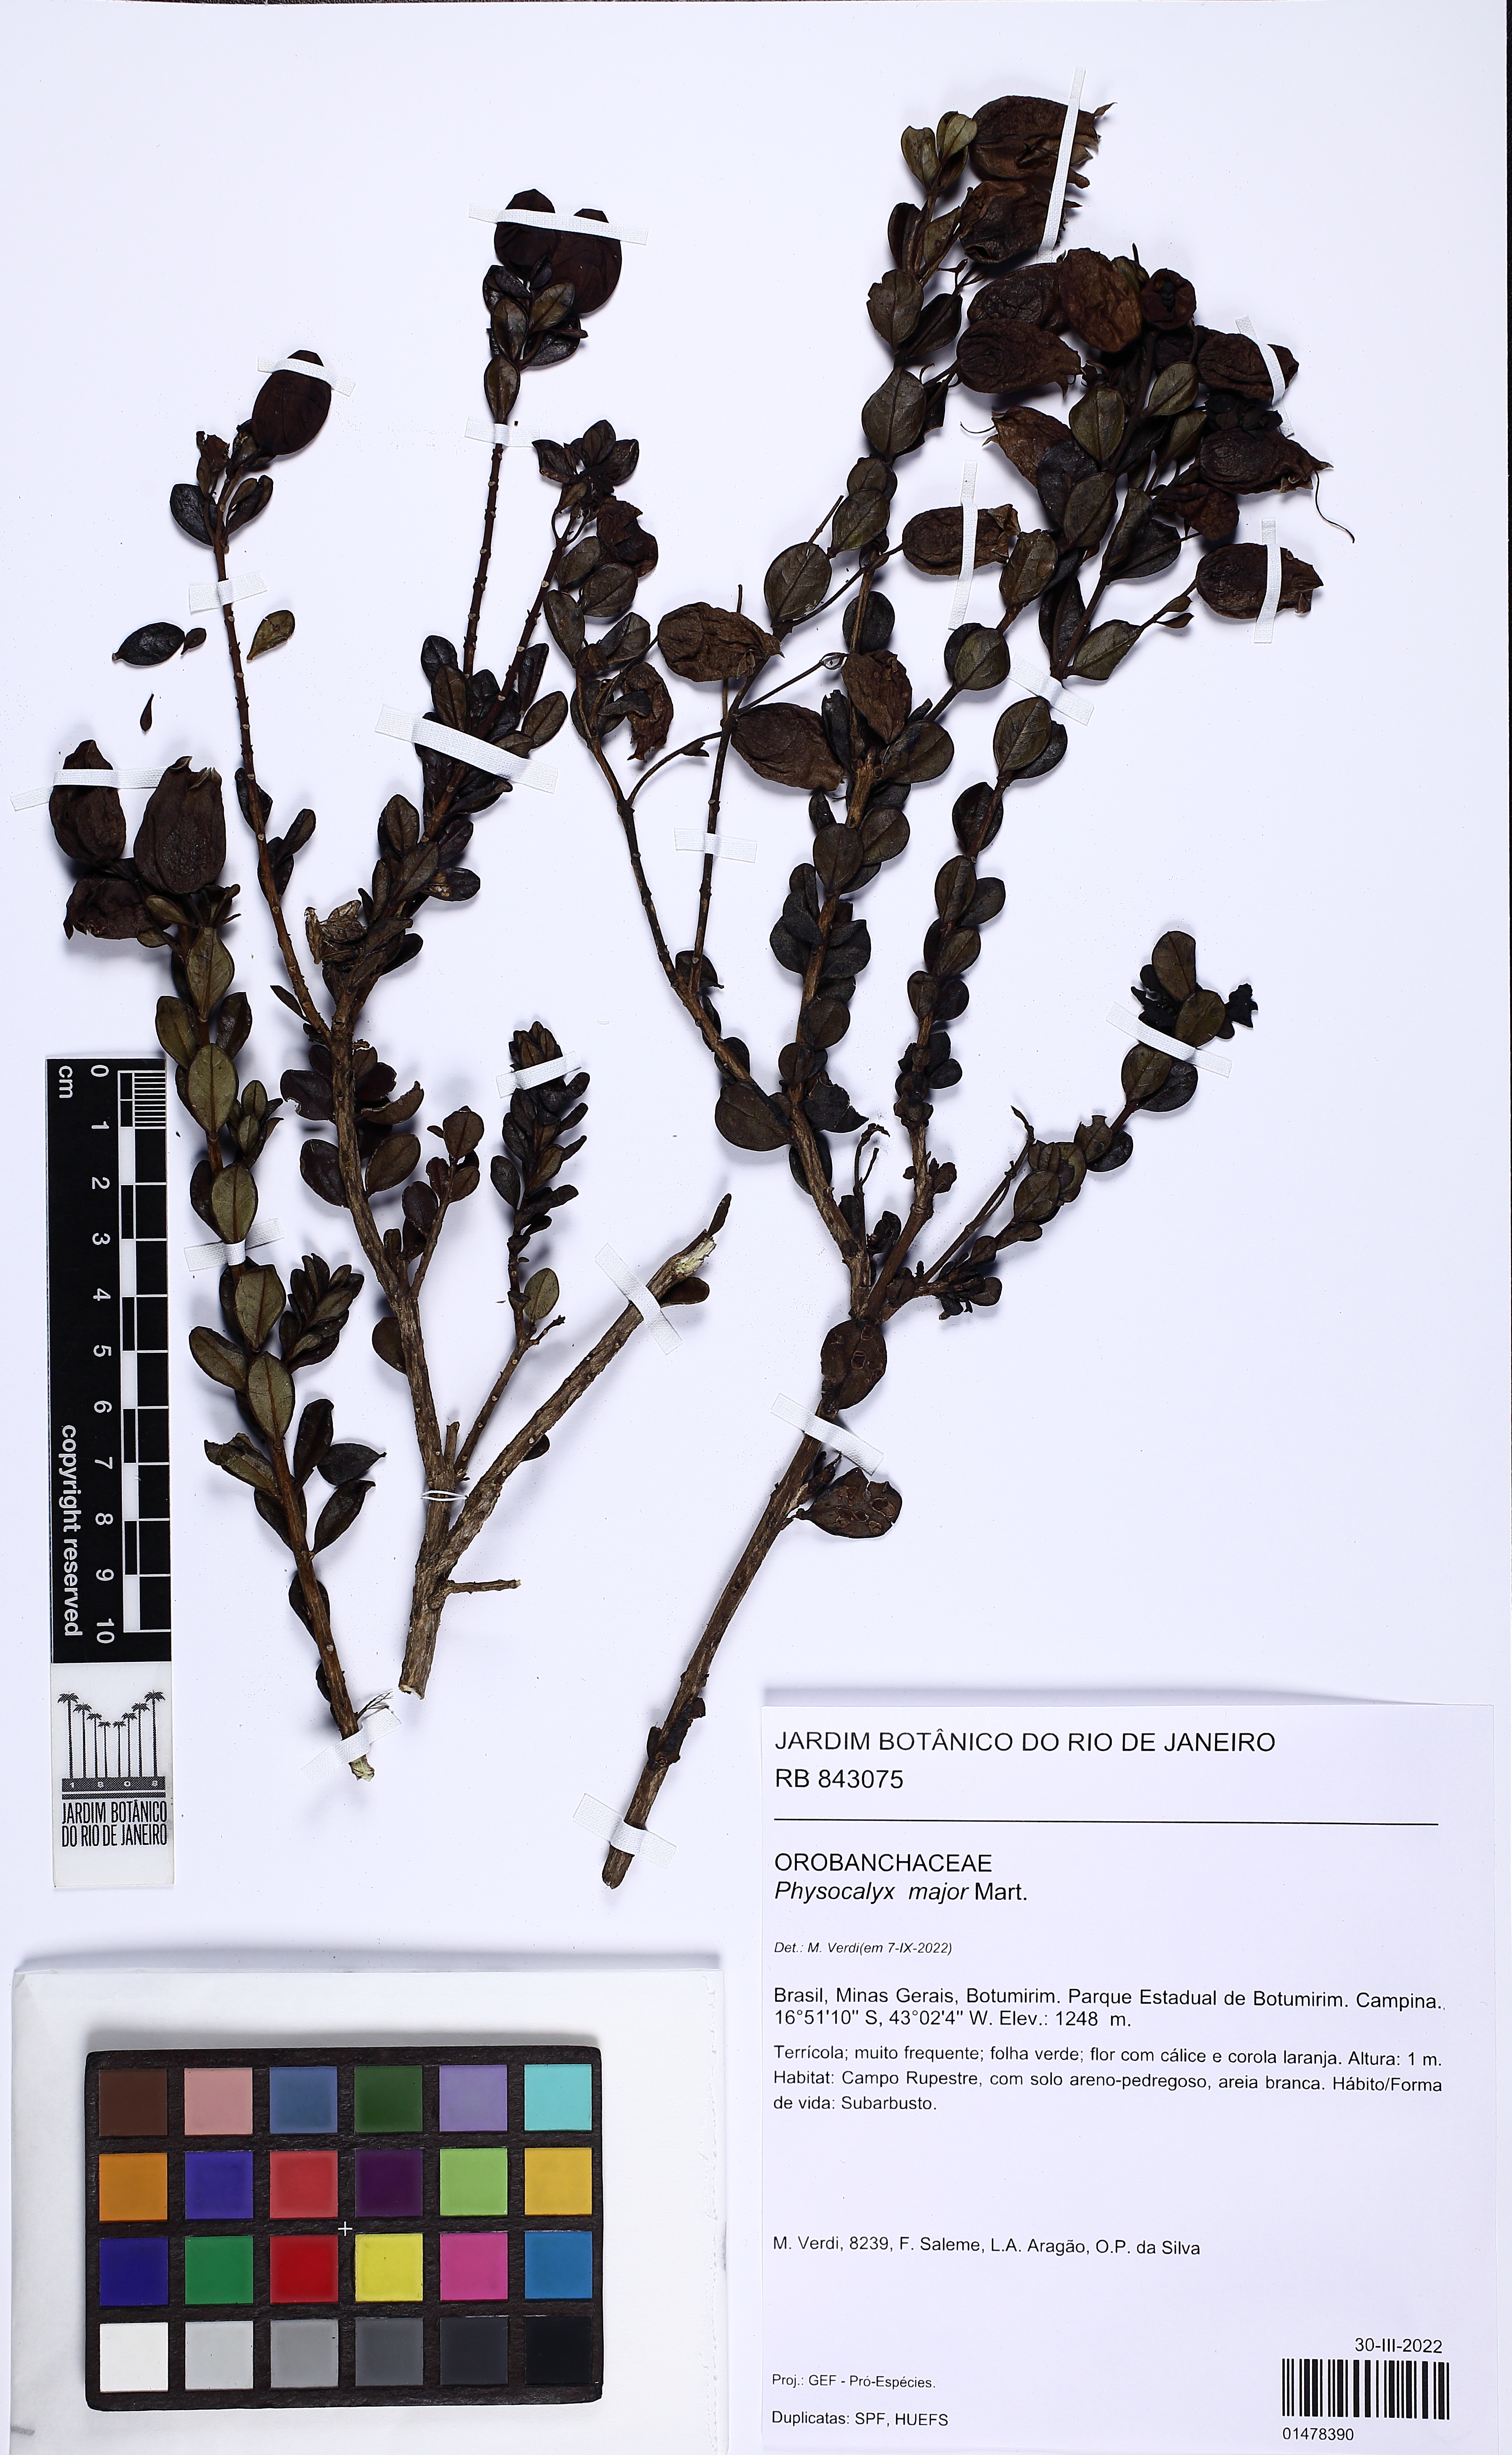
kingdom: Plantae
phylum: Tracheophyta
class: Magnoliopsida
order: Lamiales
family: Orobanchaceae
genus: Physocalyx
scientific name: Physocalyx major
